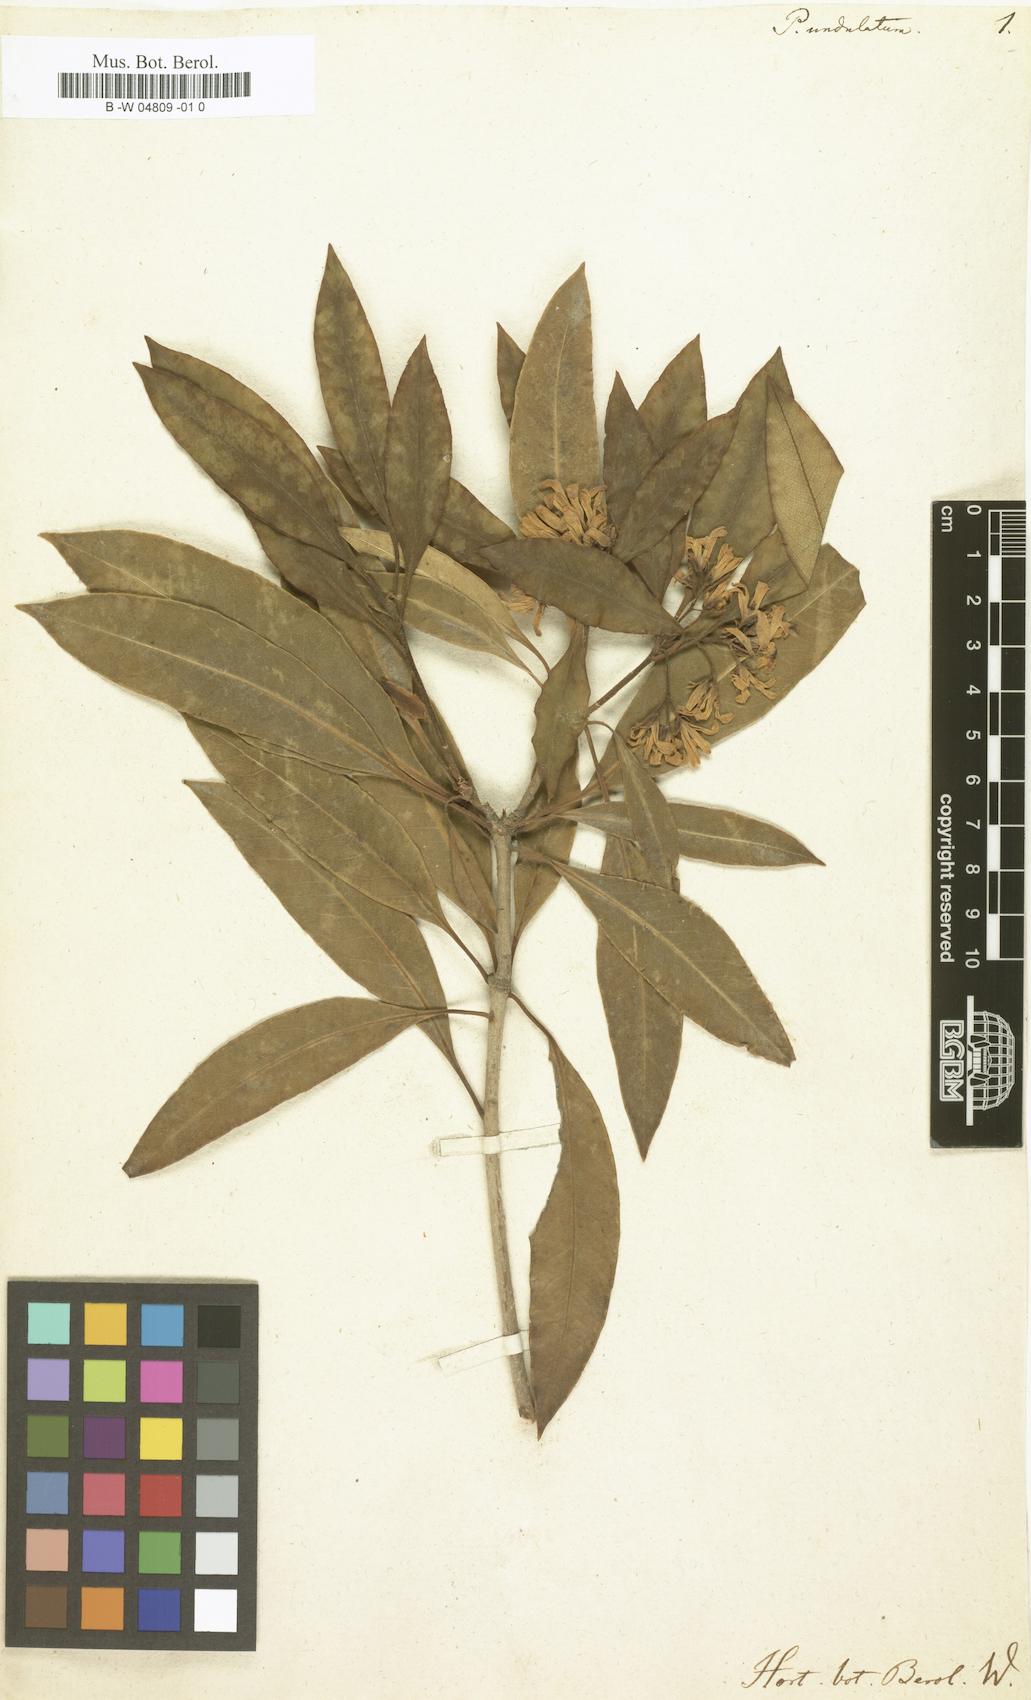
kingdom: Plantae
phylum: Tracheophyta
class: Magnoliopsida
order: Apiales
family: Pittosporaceae
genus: Pittosporum
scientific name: Pittosporum undulatum
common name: Australian cheesewood
